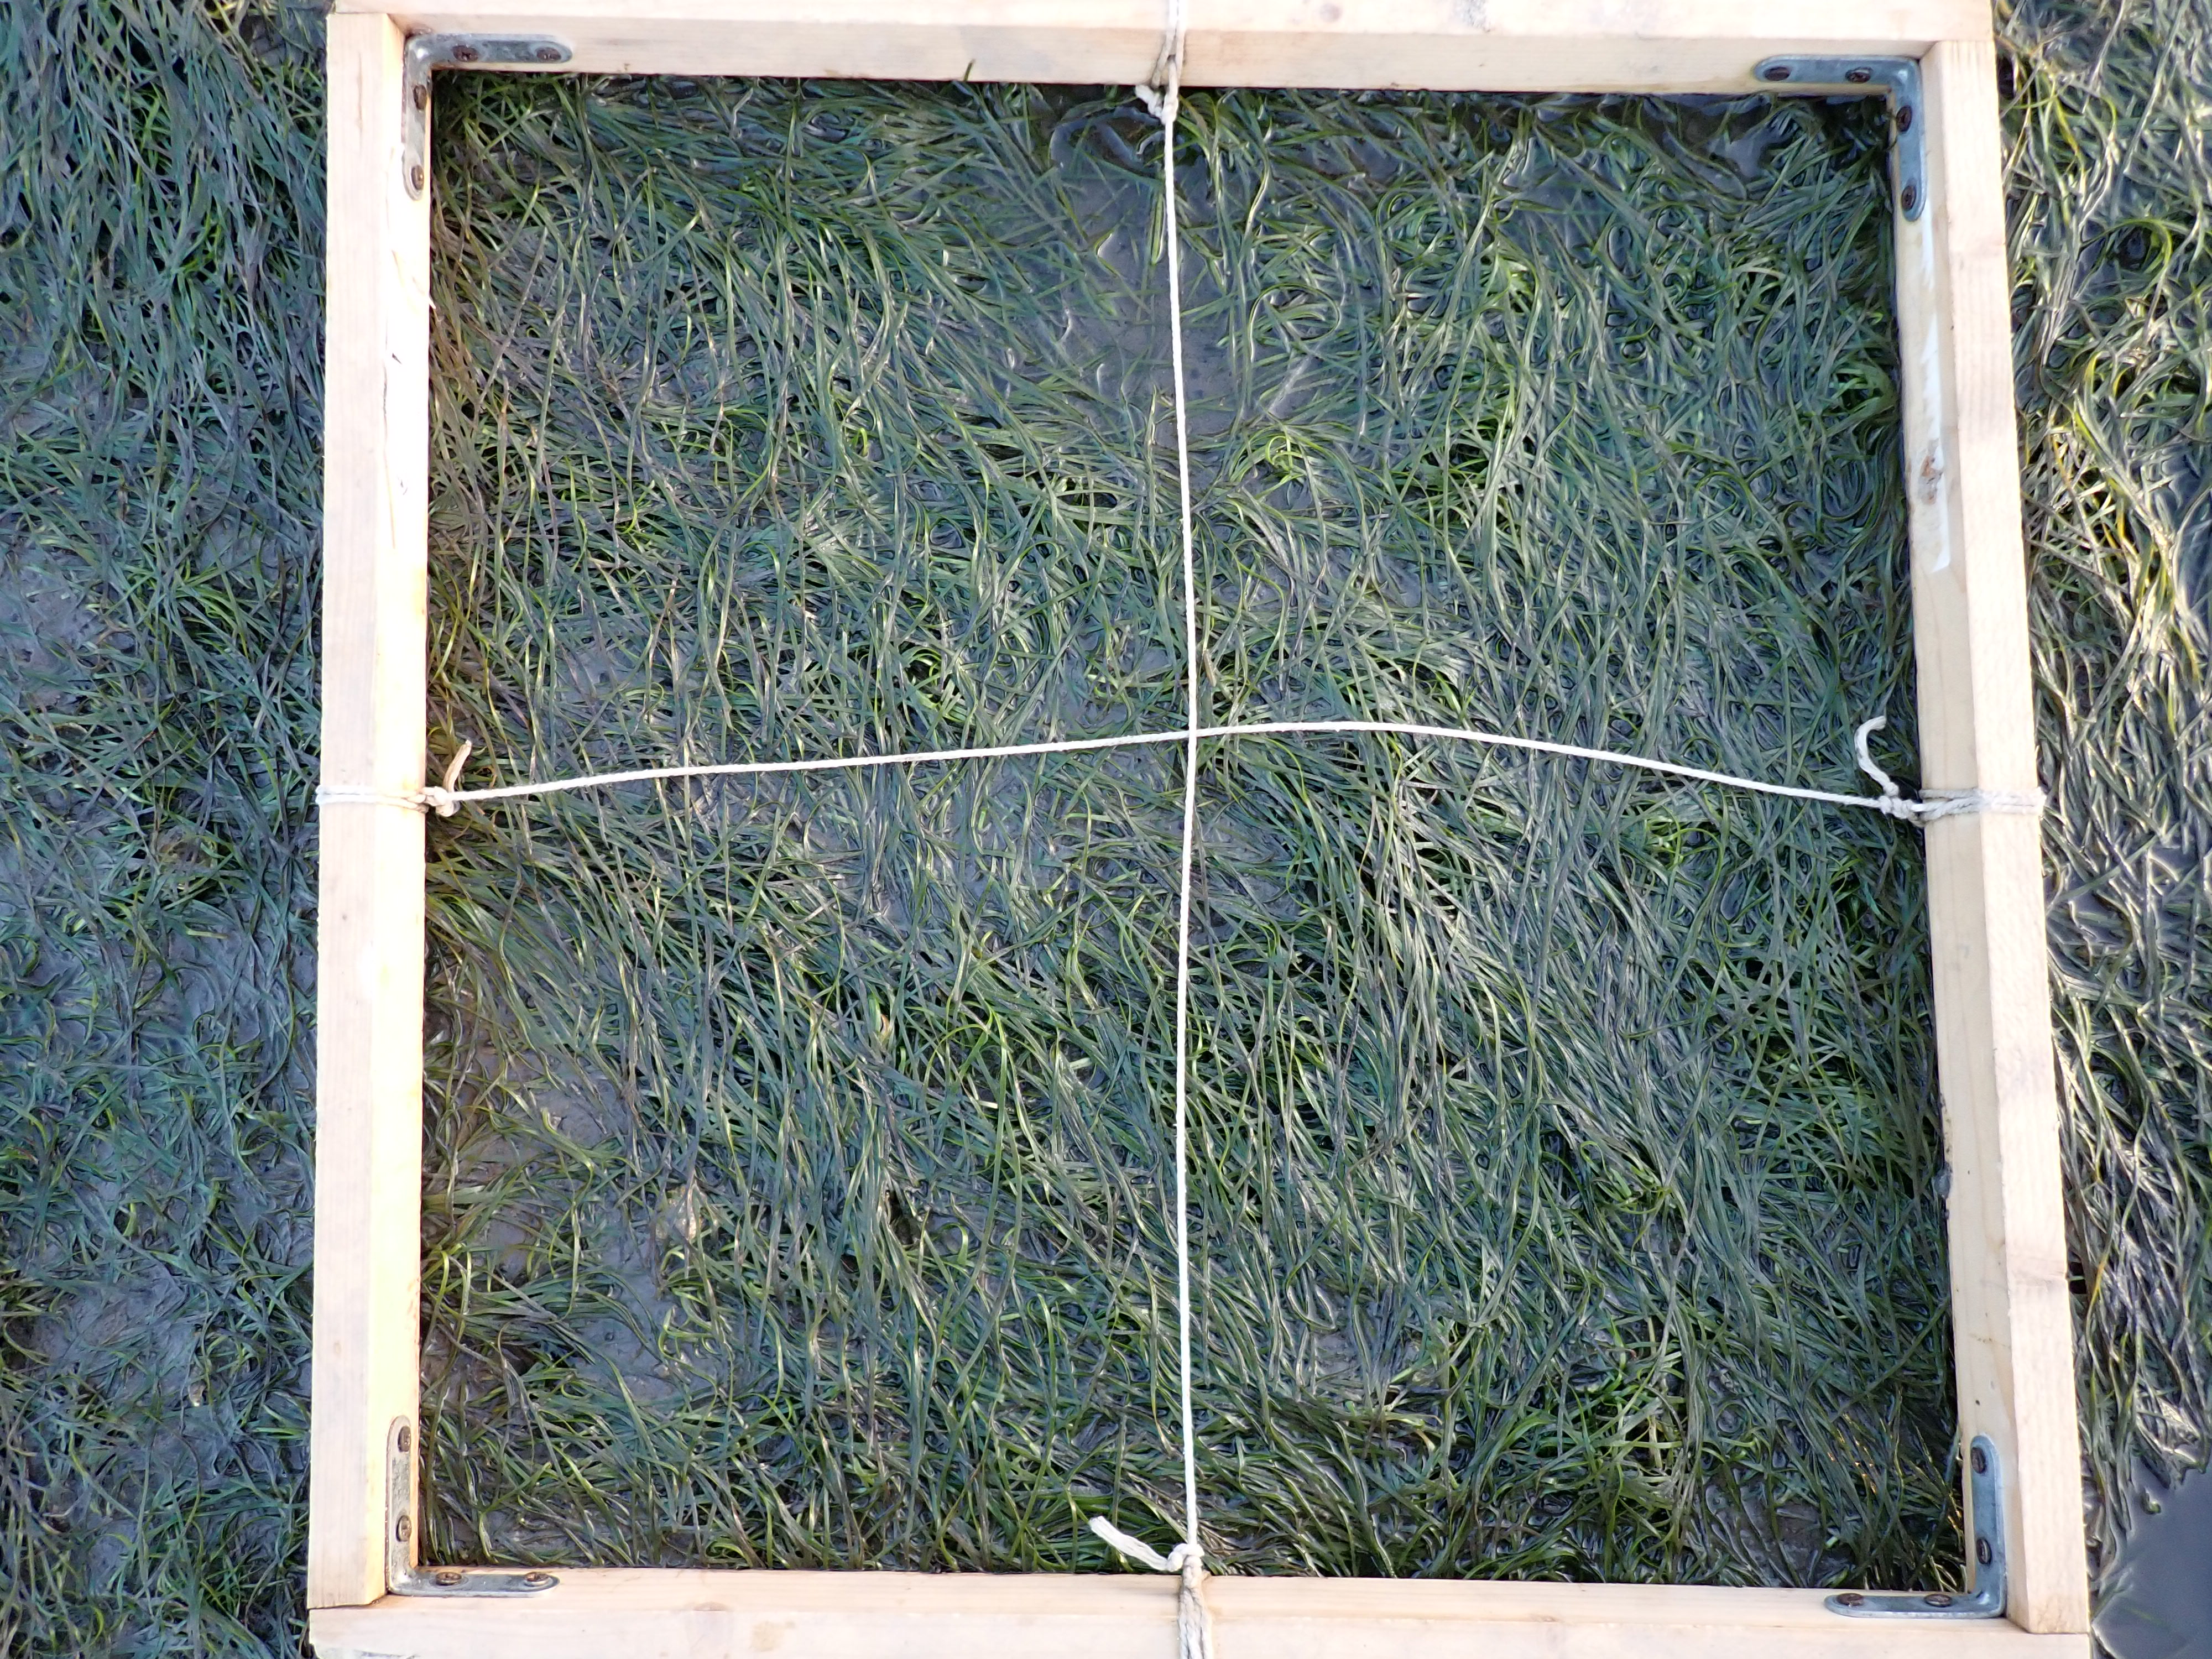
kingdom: Plantae
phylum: Tracheophyta
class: Liliopsida
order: Alismatales
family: Zosteraceae
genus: Zostera
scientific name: Zostera noltii
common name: Dwarf eelgrass
